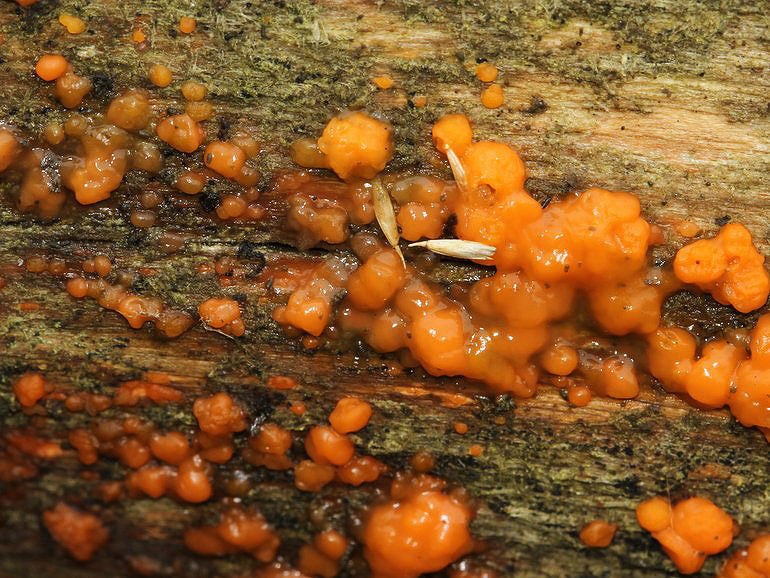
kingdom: Fungi
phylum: Basidiomycota
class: Dacrymycetes
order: Dacrymycetales
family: Dacrymycetaceae
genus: Dacrymyces
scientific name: Dacrymyces stillatus
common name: almindelig tåresvamp
